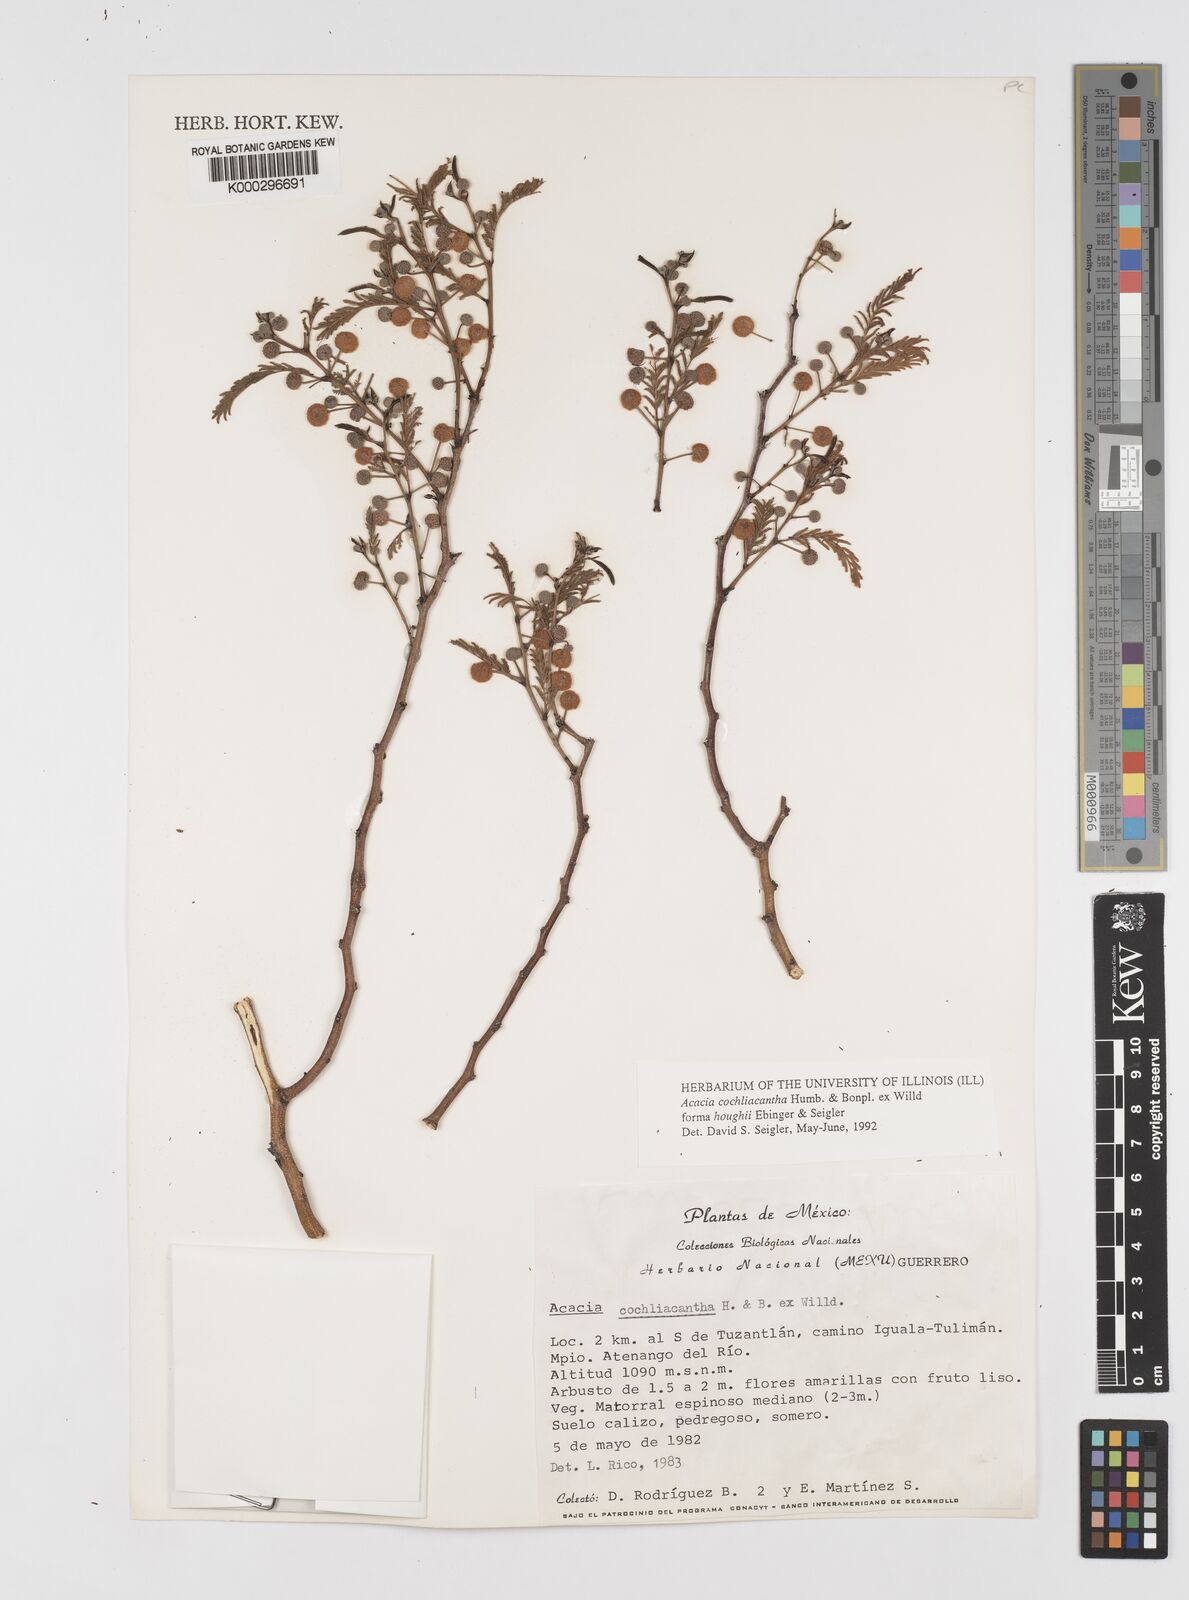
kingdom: Plantae
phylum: Tracheophyta
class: Magnoliopsida
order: Fabales
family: Fabaceae
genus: Archidendron
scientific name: Archidendron
